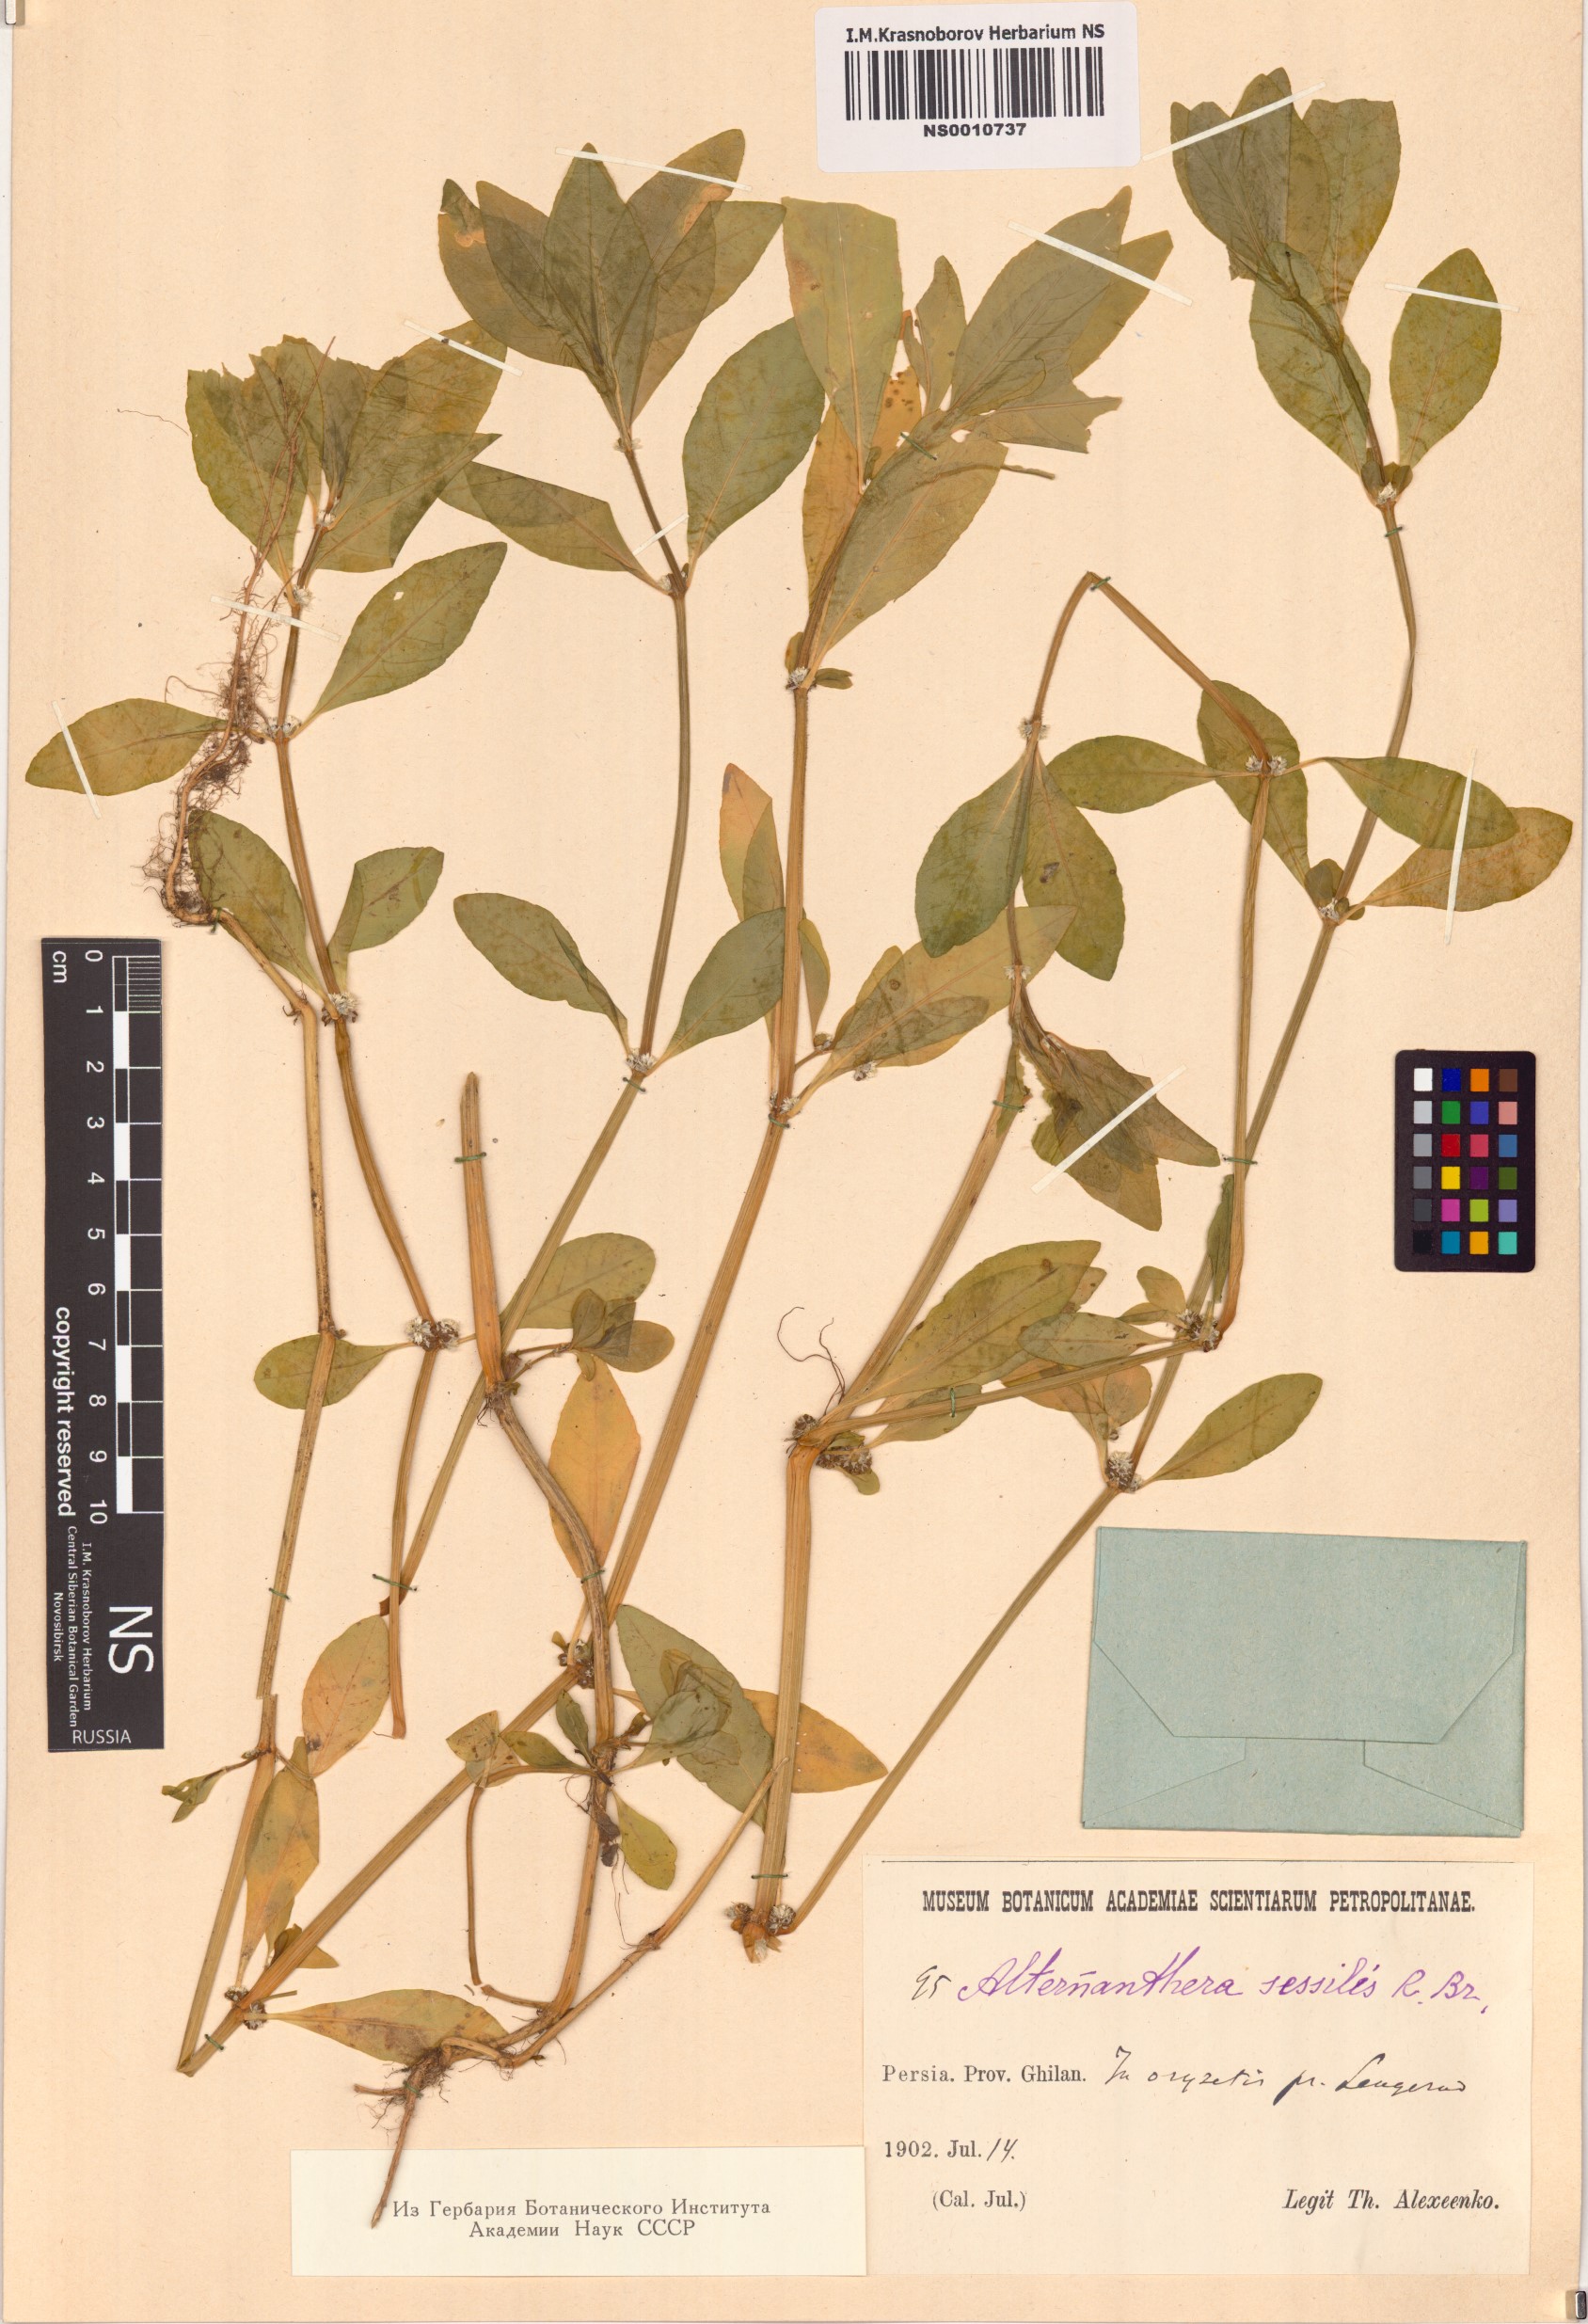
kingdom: Plantae
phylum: Tracheophyta
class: Magnoliopsida
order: Caryophyllales
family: Amaranthaceae
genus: Alternanthera
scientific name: Alternanthera sessilis
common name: Sessile joyweed
